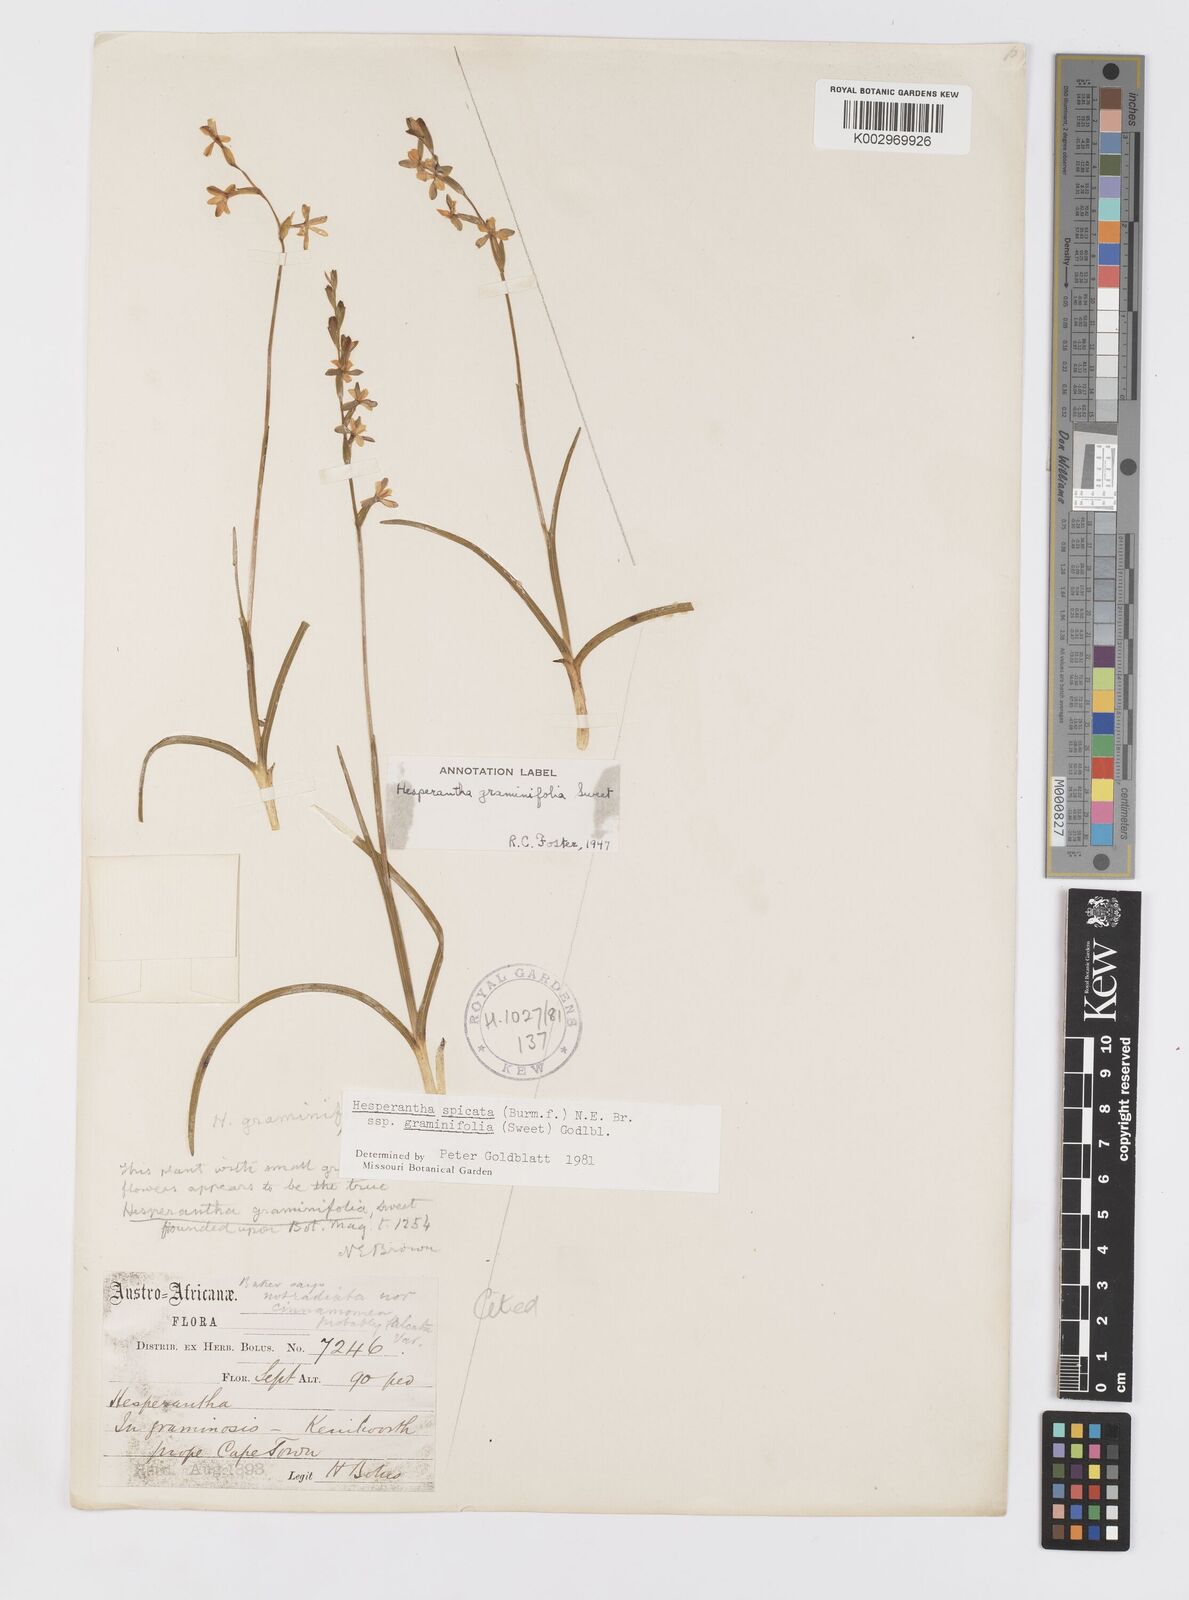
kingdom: Plantae
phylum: Tracheophyta
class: Liliopsida
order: Asparagales
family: Iridaceae
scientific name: Iridaceae
